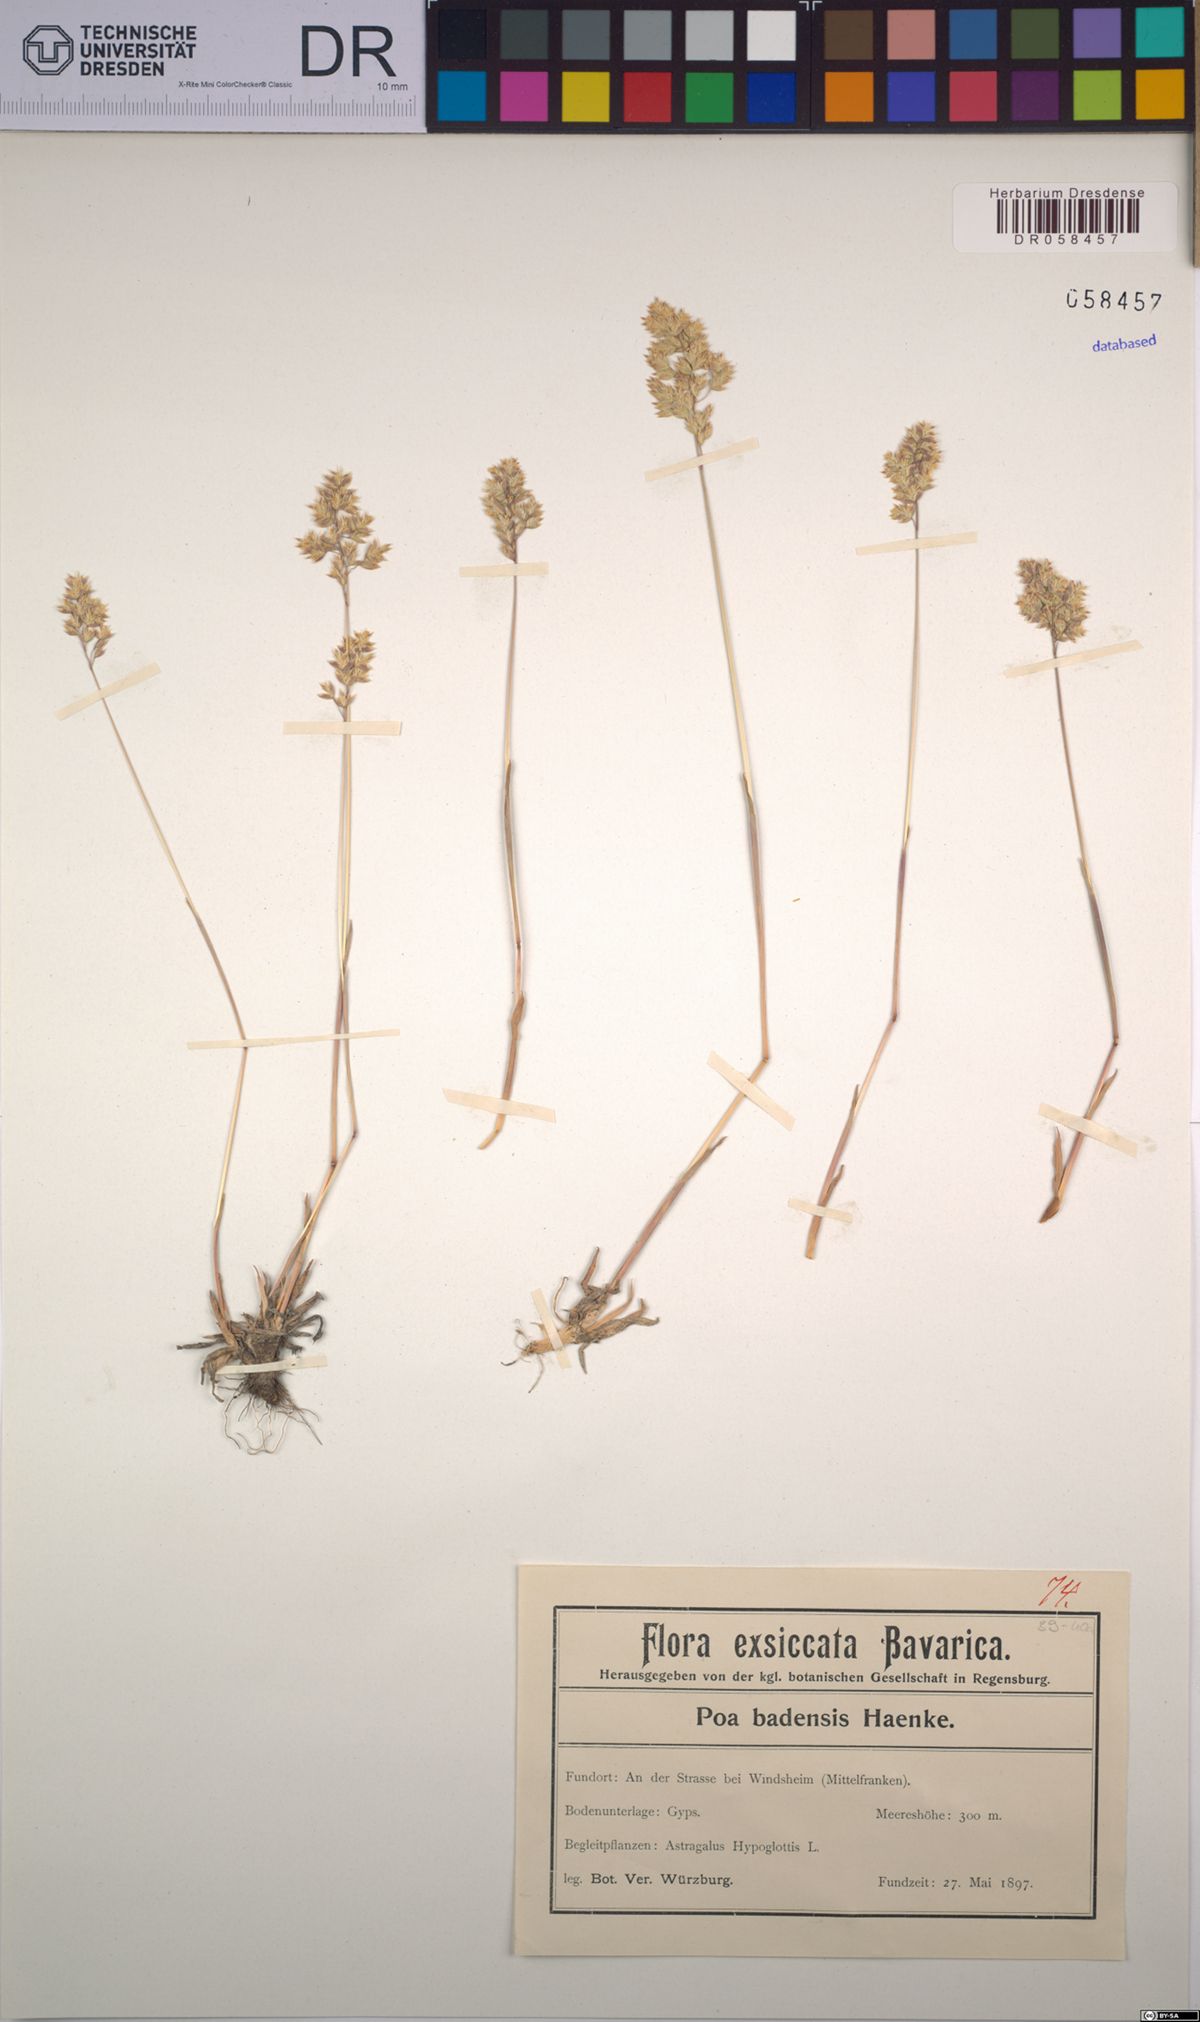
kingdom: Plantae
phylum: Tracheophyta
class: Liliopsida
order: Poales
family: Poaceae
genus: Poa
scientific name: Poa badensis
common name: Baden's bluegrass
